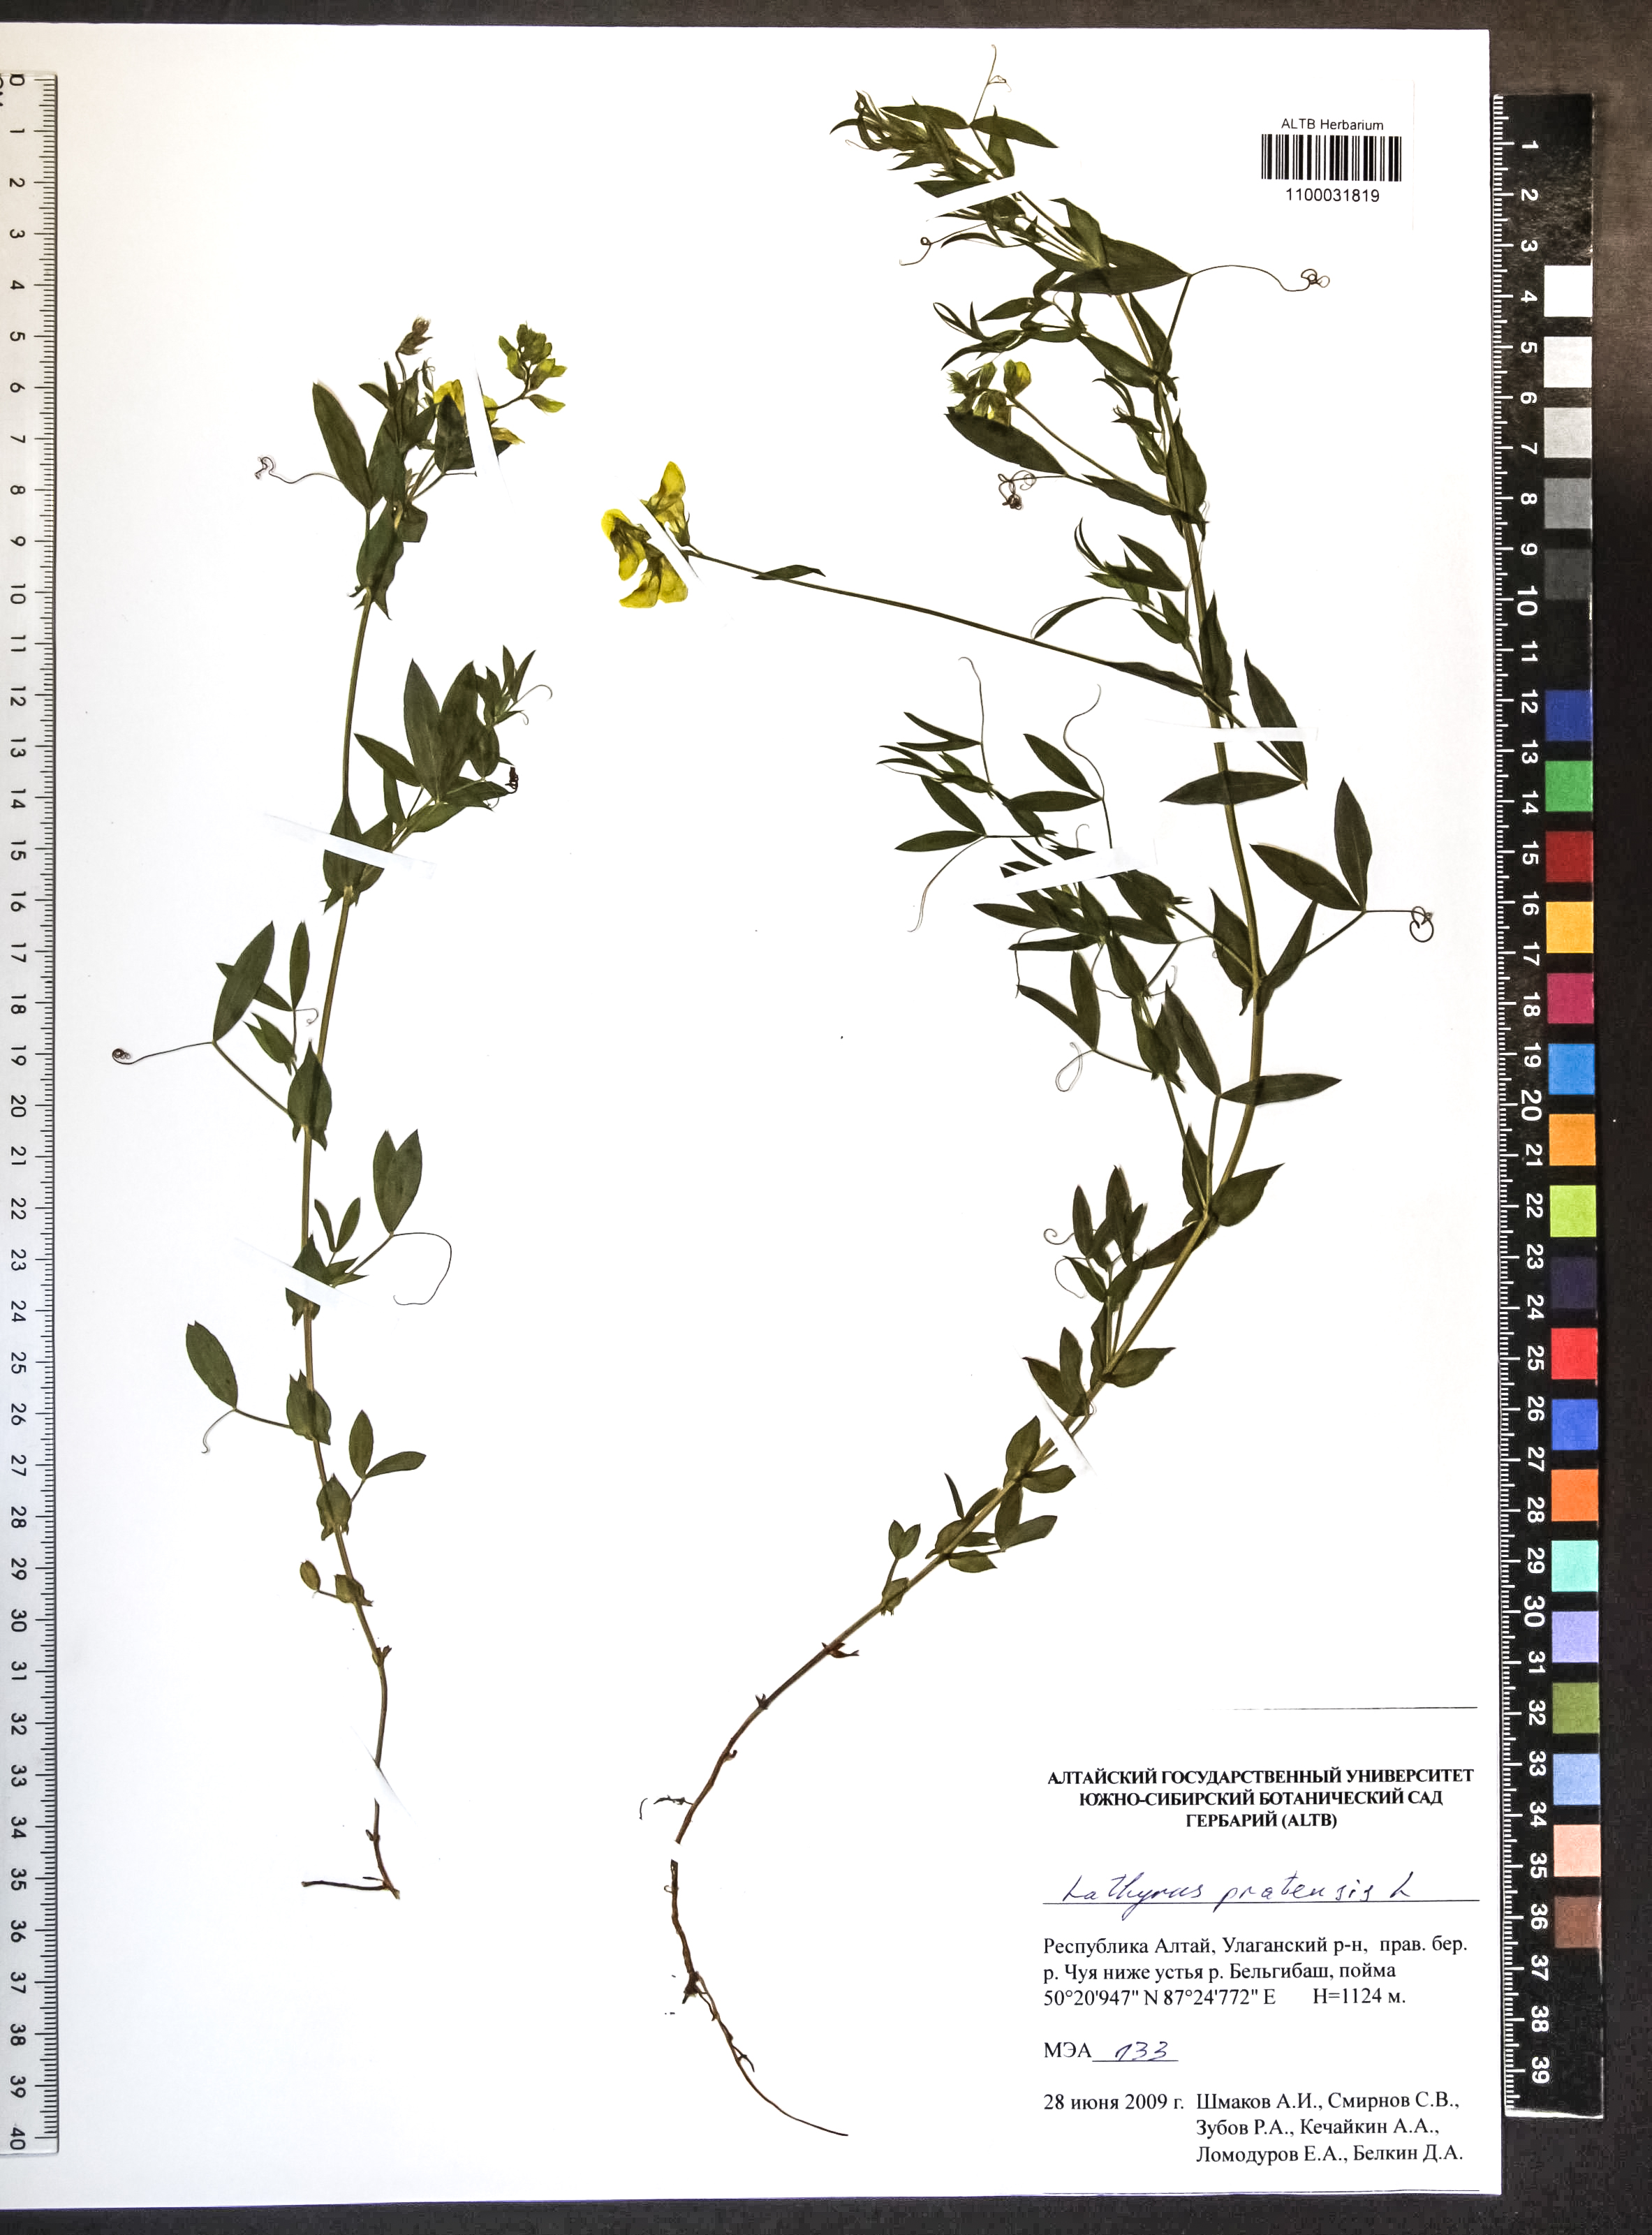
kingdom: Plantae
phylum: Tracheophyta
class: Magnoliopsida
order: Fabales
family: Fabaceae
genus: Lathyrus
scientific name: Lathyrus pratensis
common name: Meadow vetchling
